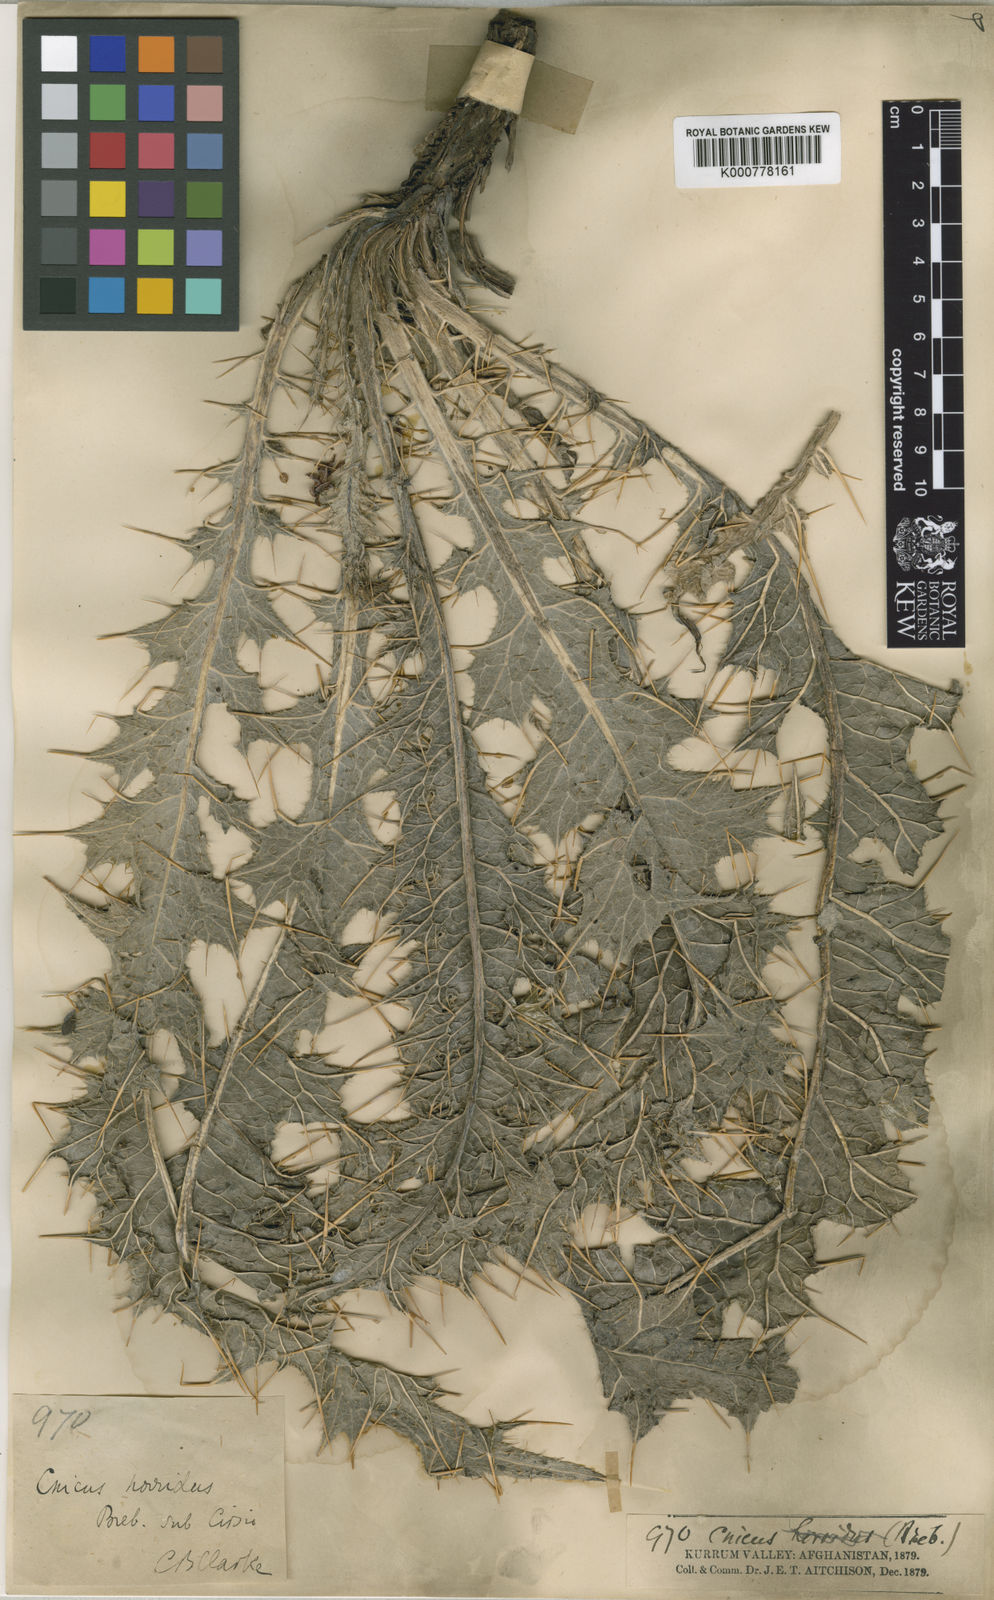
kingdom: Plantae
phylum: Tracheophyta
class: Magnoliopsida
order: Asterales
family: Asteraceae
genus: Lophiolepis
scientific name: Lophiolepis aitchisonii
